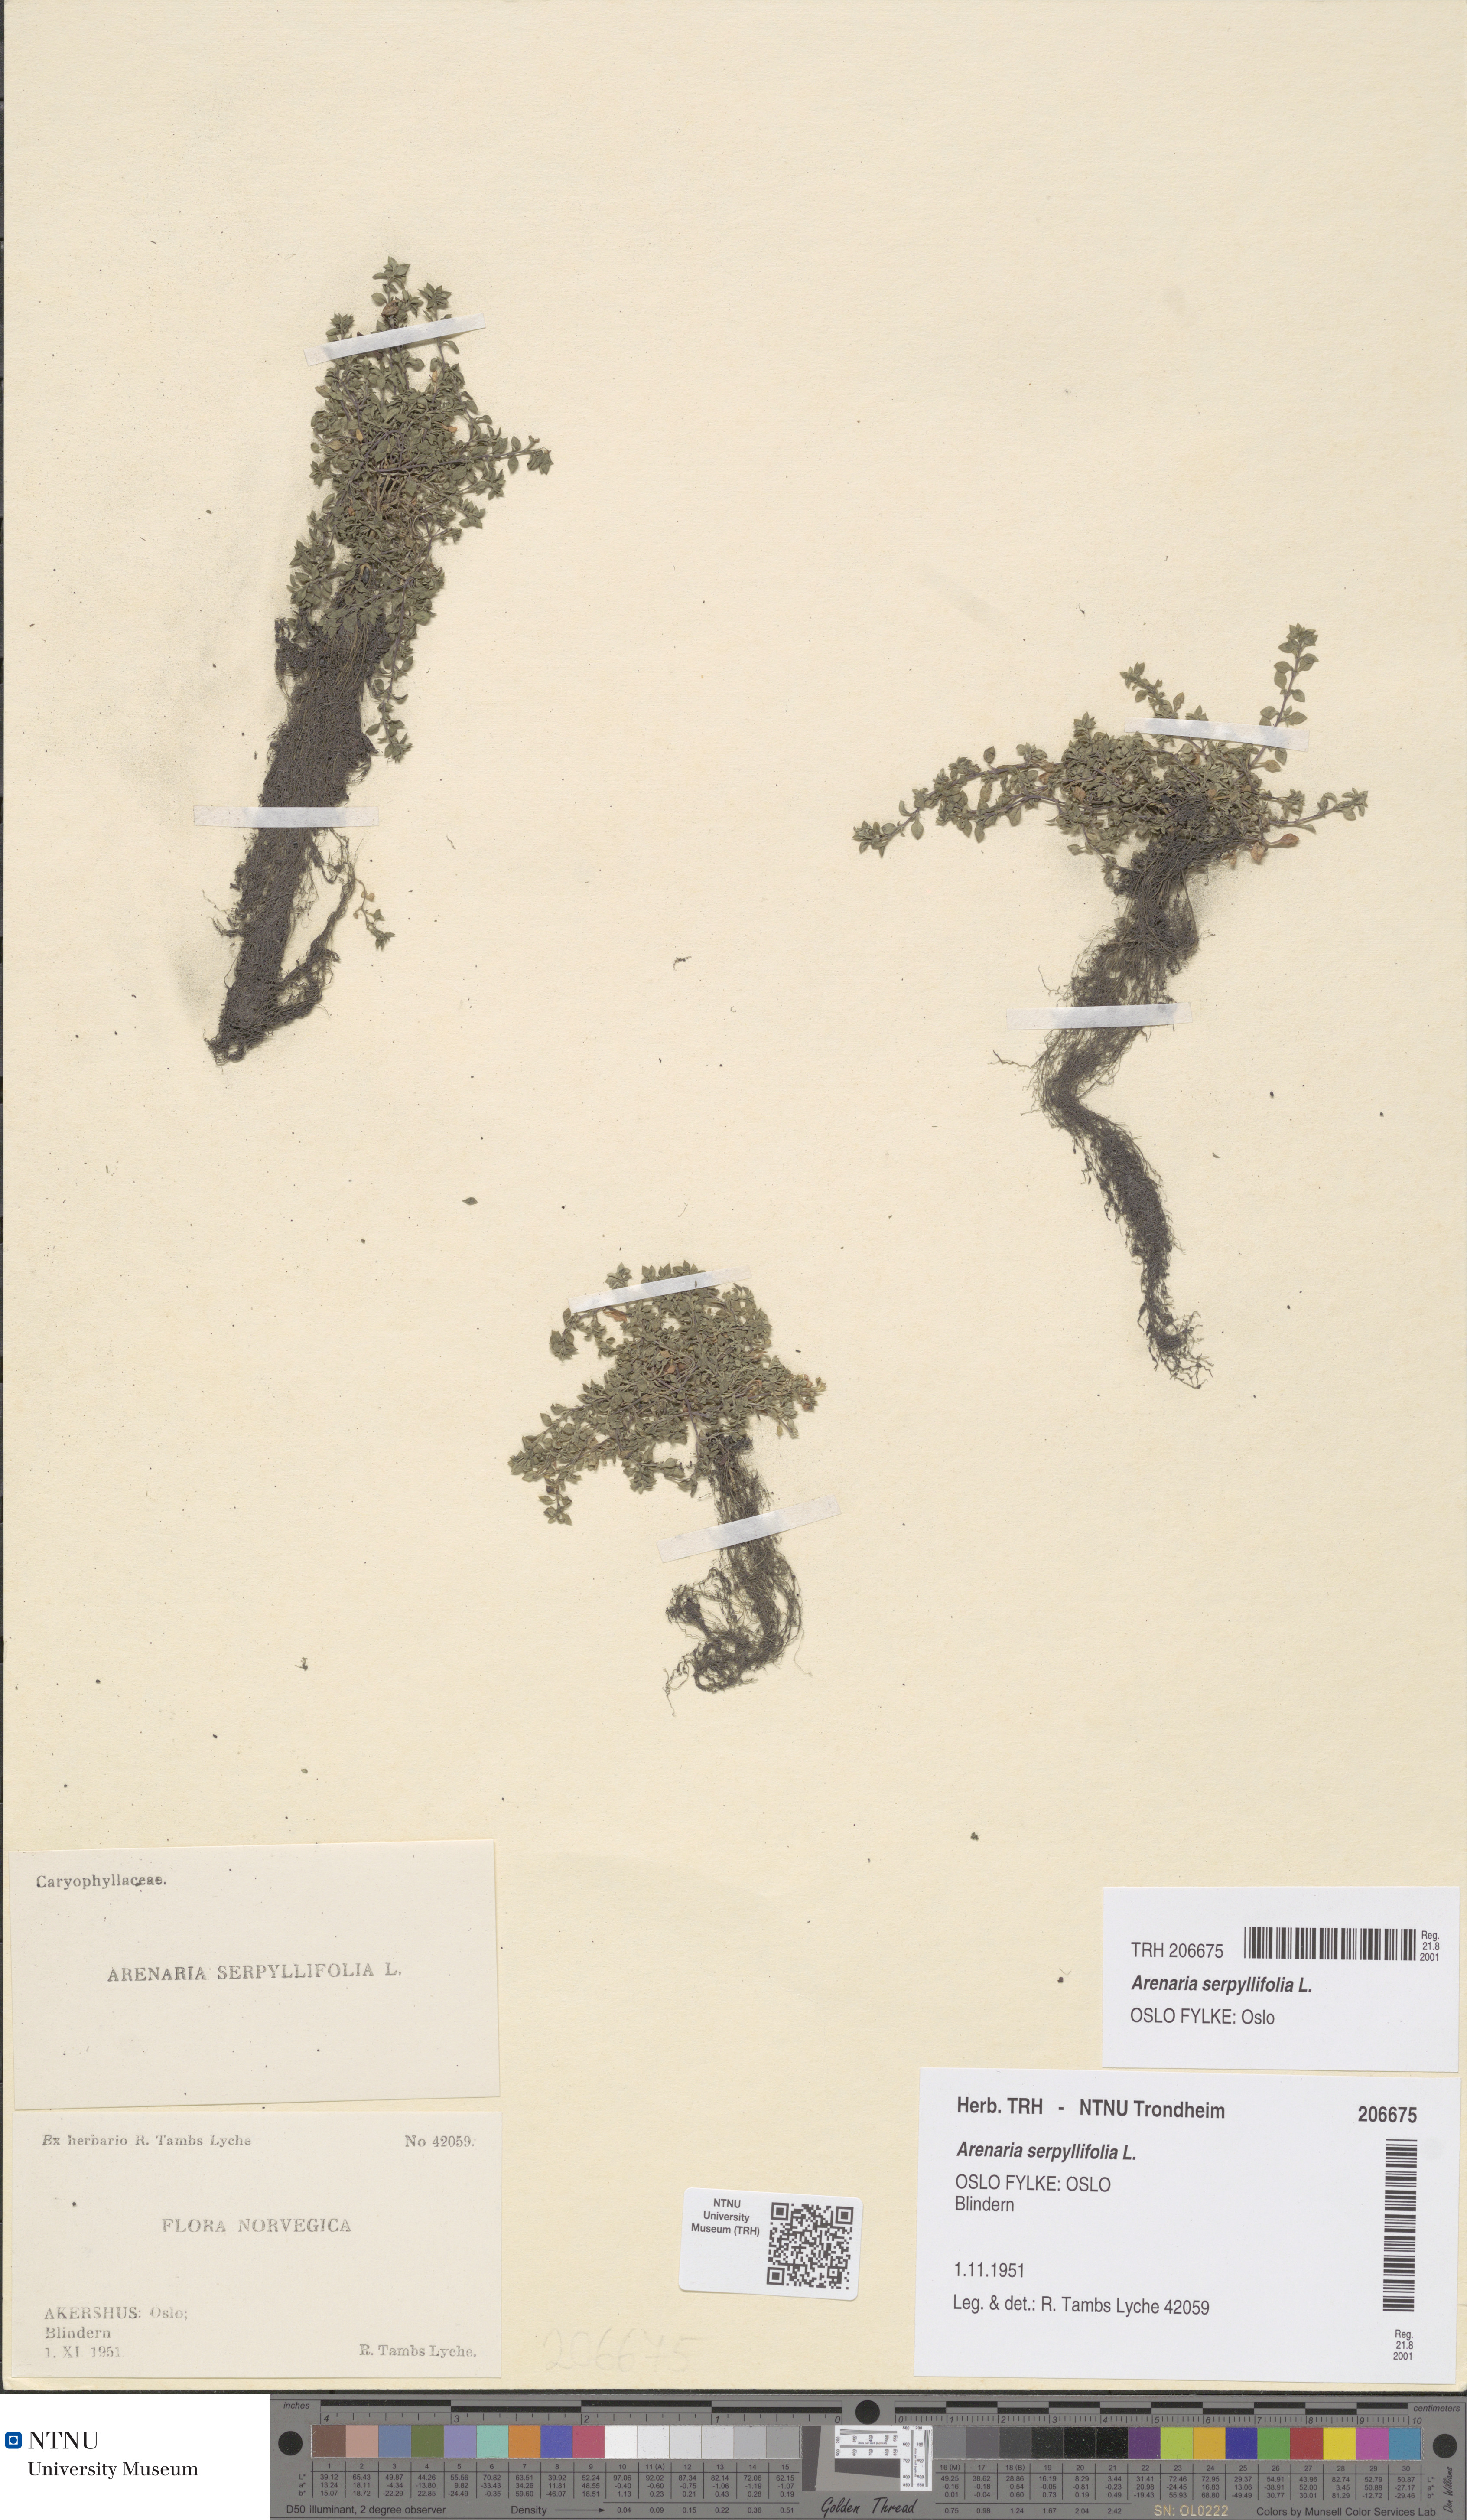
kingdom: Plantae
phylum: Tracheophyta
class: Magnoliopsida
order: Caryophyllales
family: Caryophyllaceae
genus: Arenaria
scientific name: Arenaria serpyllifolia
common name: Thyme-leaved sandwort
